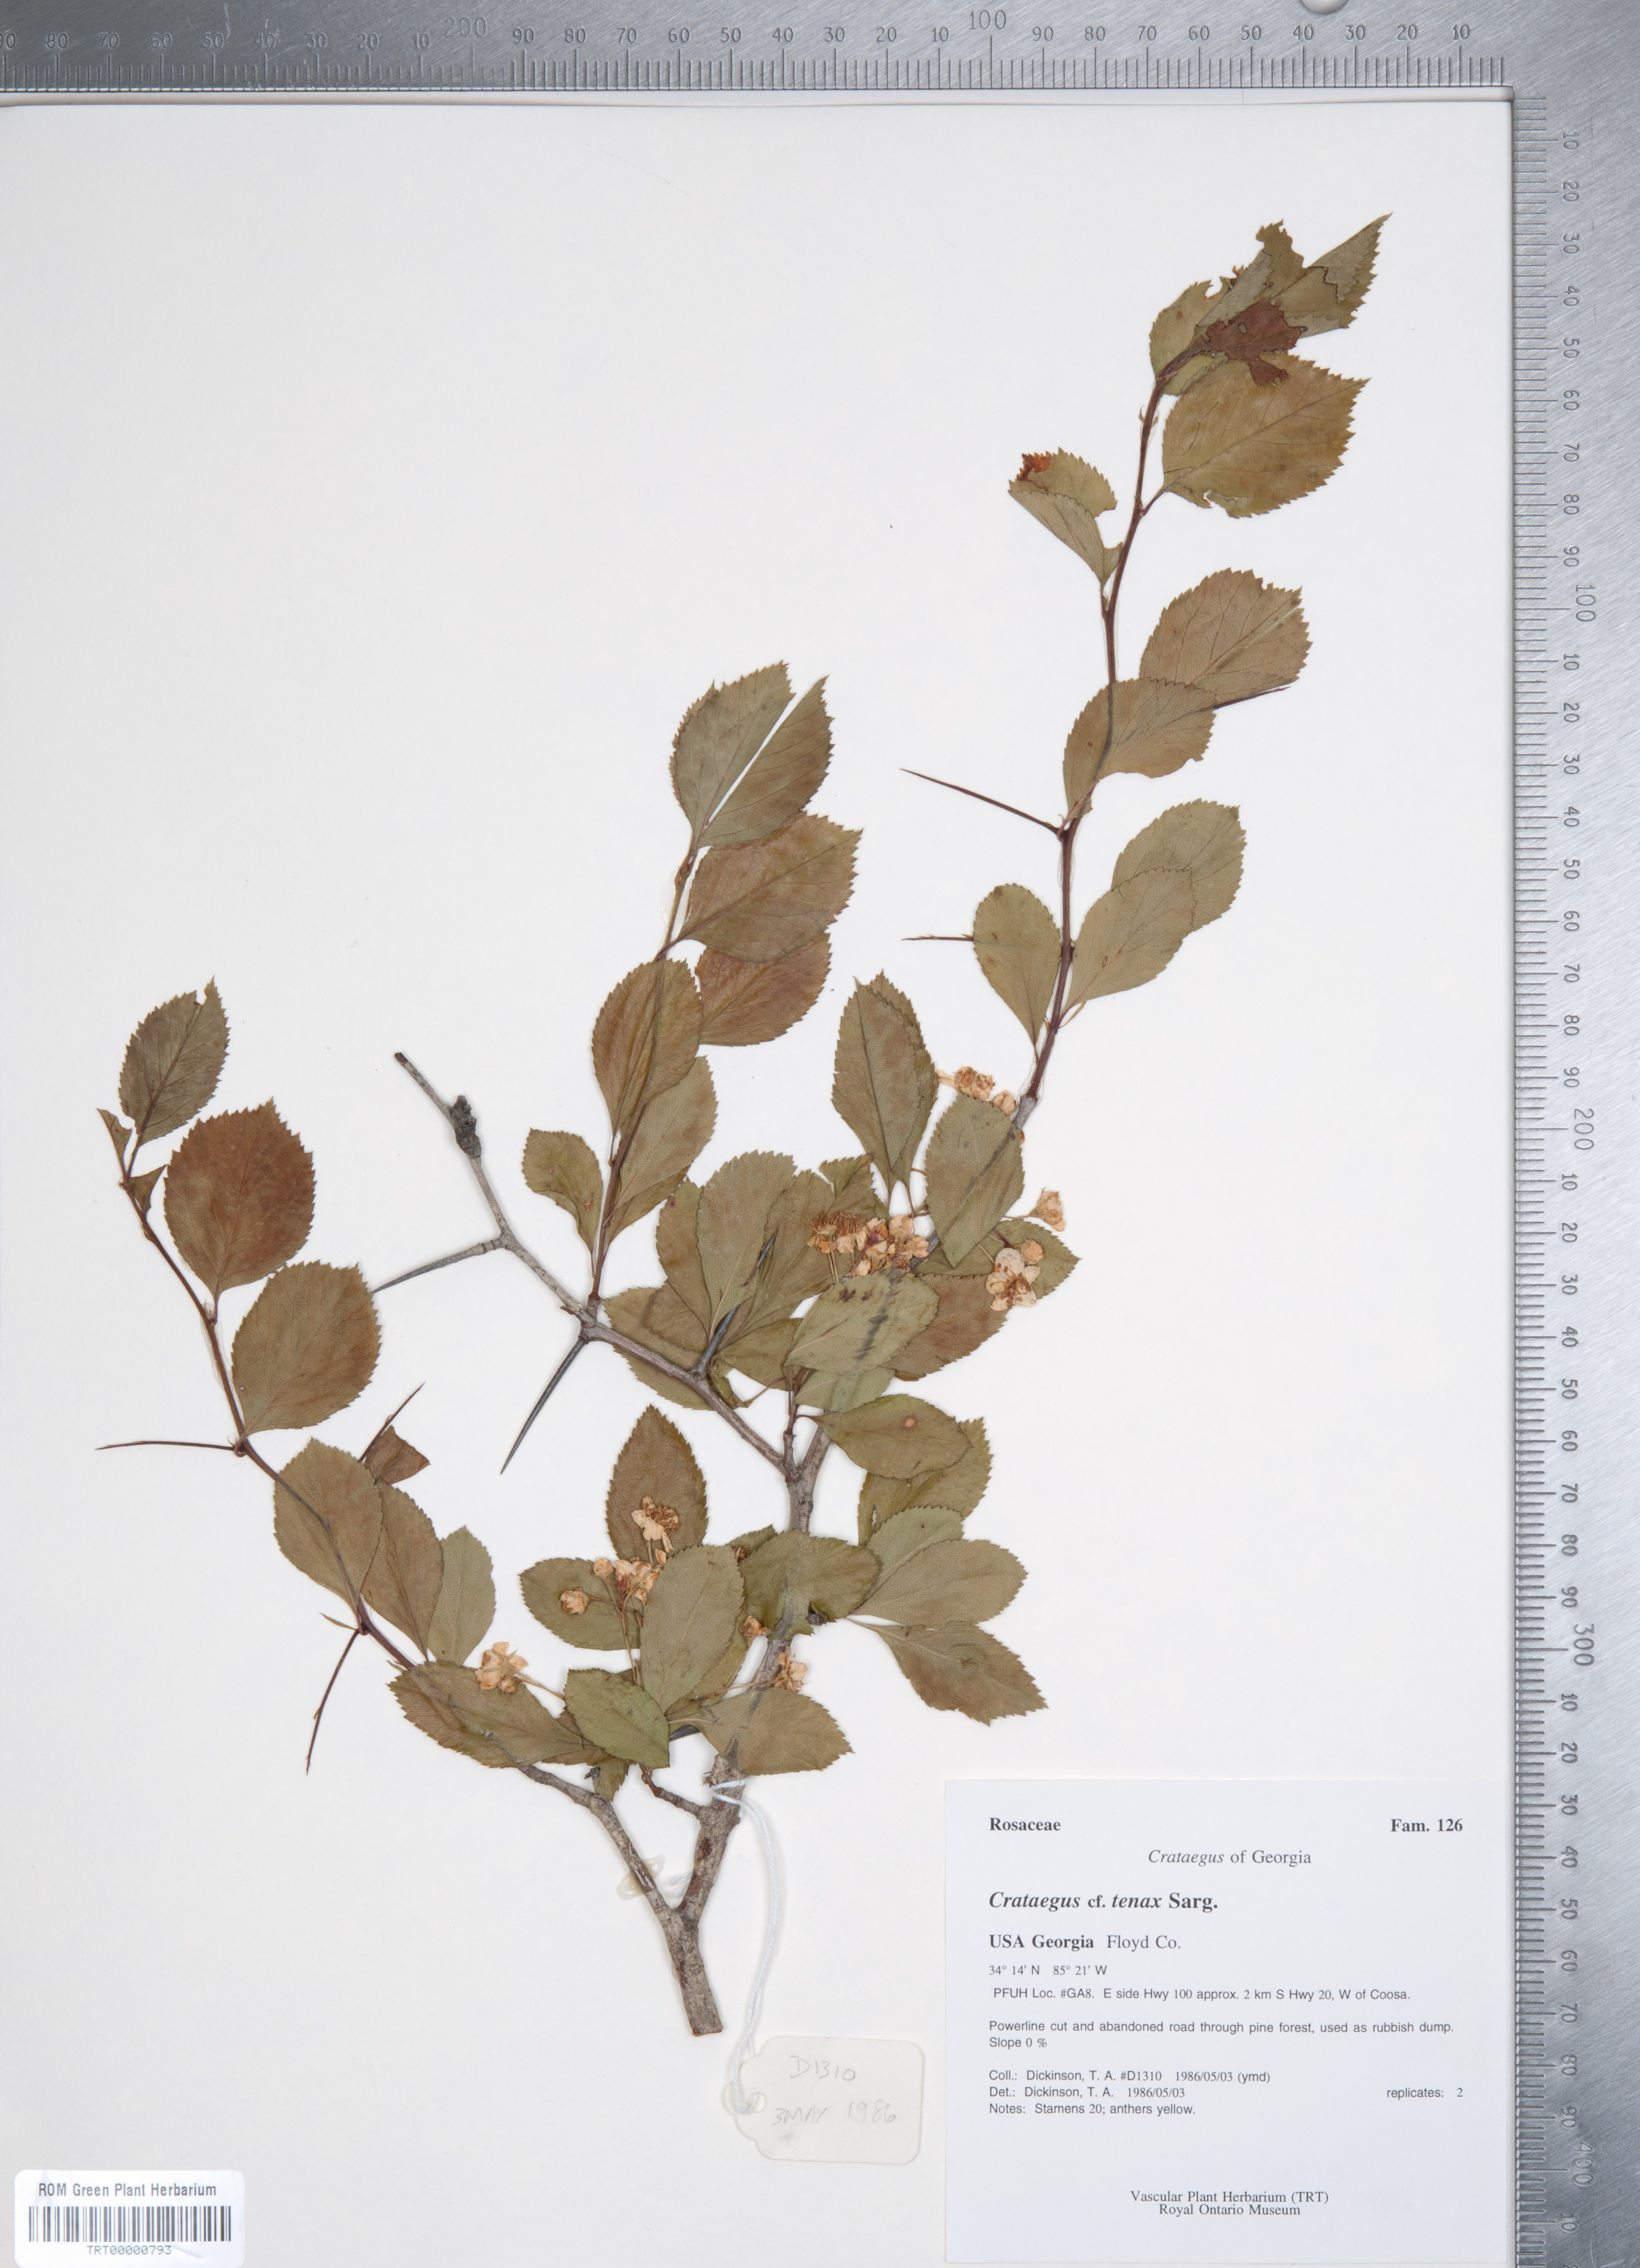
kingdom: Plantae
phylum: Tracheophyta
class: Magnoliopsida
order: Rosales
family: Rosaceae
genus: Crataegus
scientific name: Crataegus crus-galli
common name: Cockspurthorn
